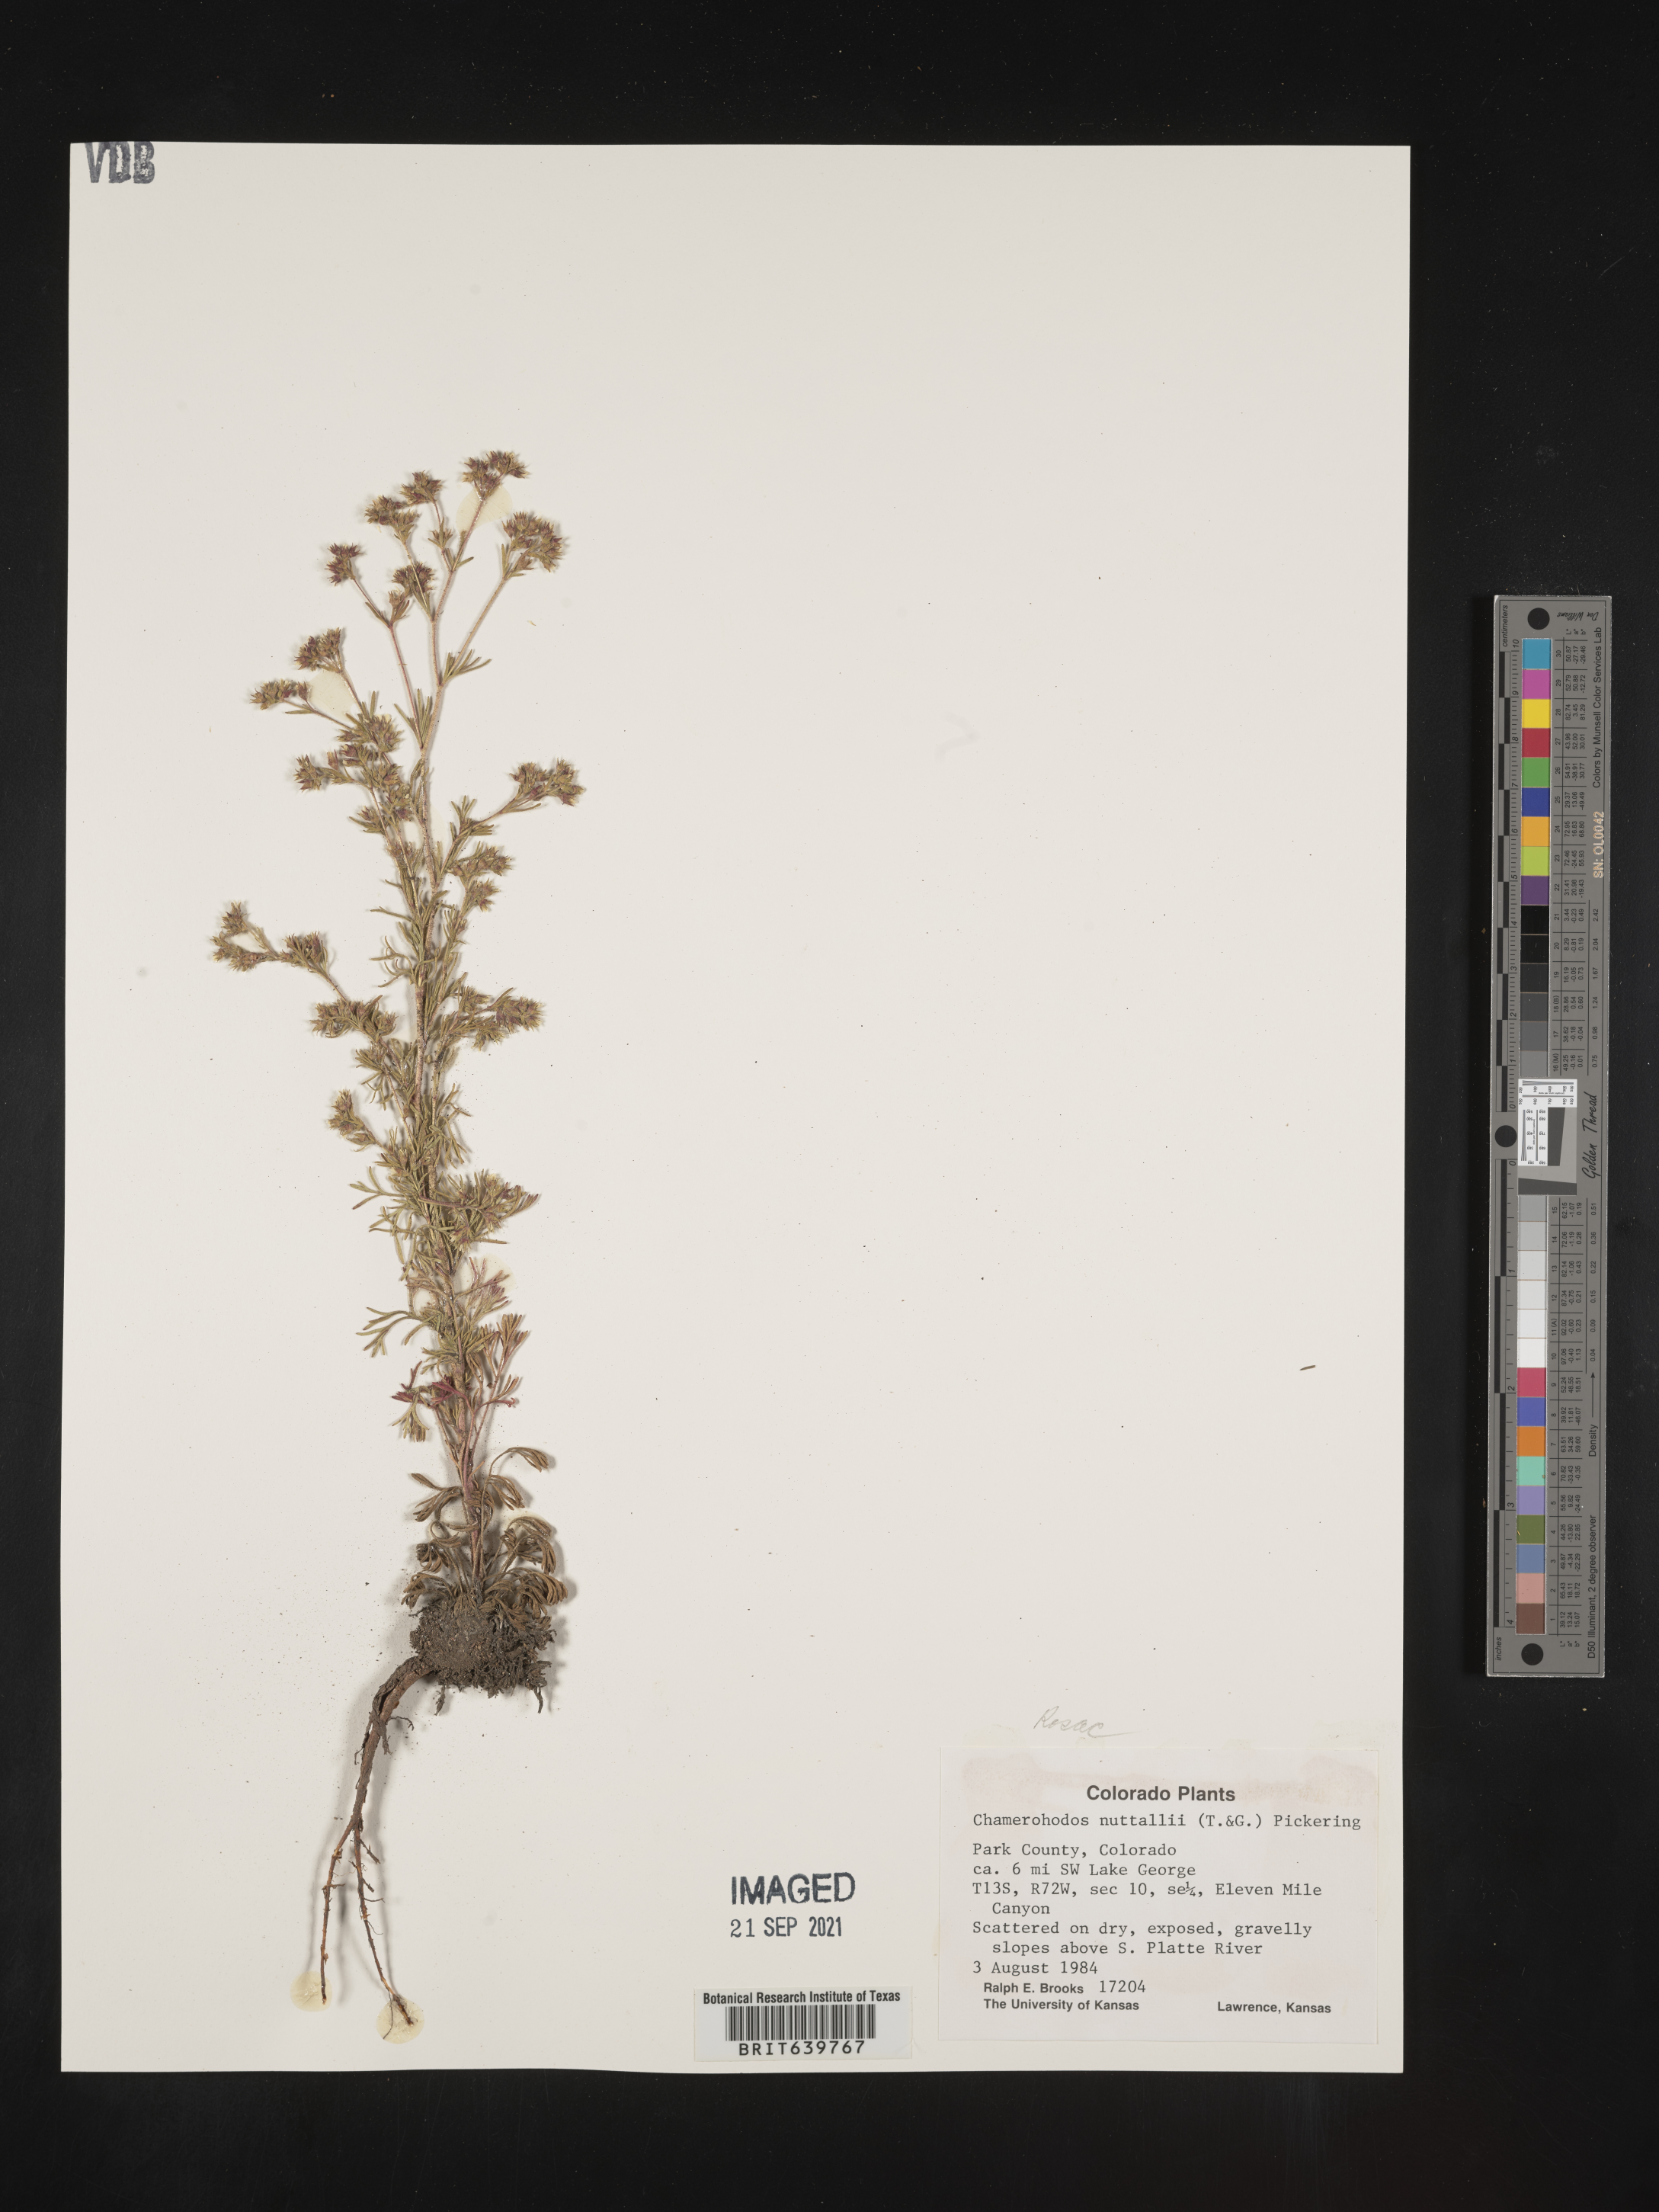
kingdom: Plantae
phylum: Tracheophyta
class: Magnoliopsida
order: Rosales
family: Rosaceae
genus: Chamaerhodos
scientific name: Chamaerhodos erecta
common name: American chamaerhodos
